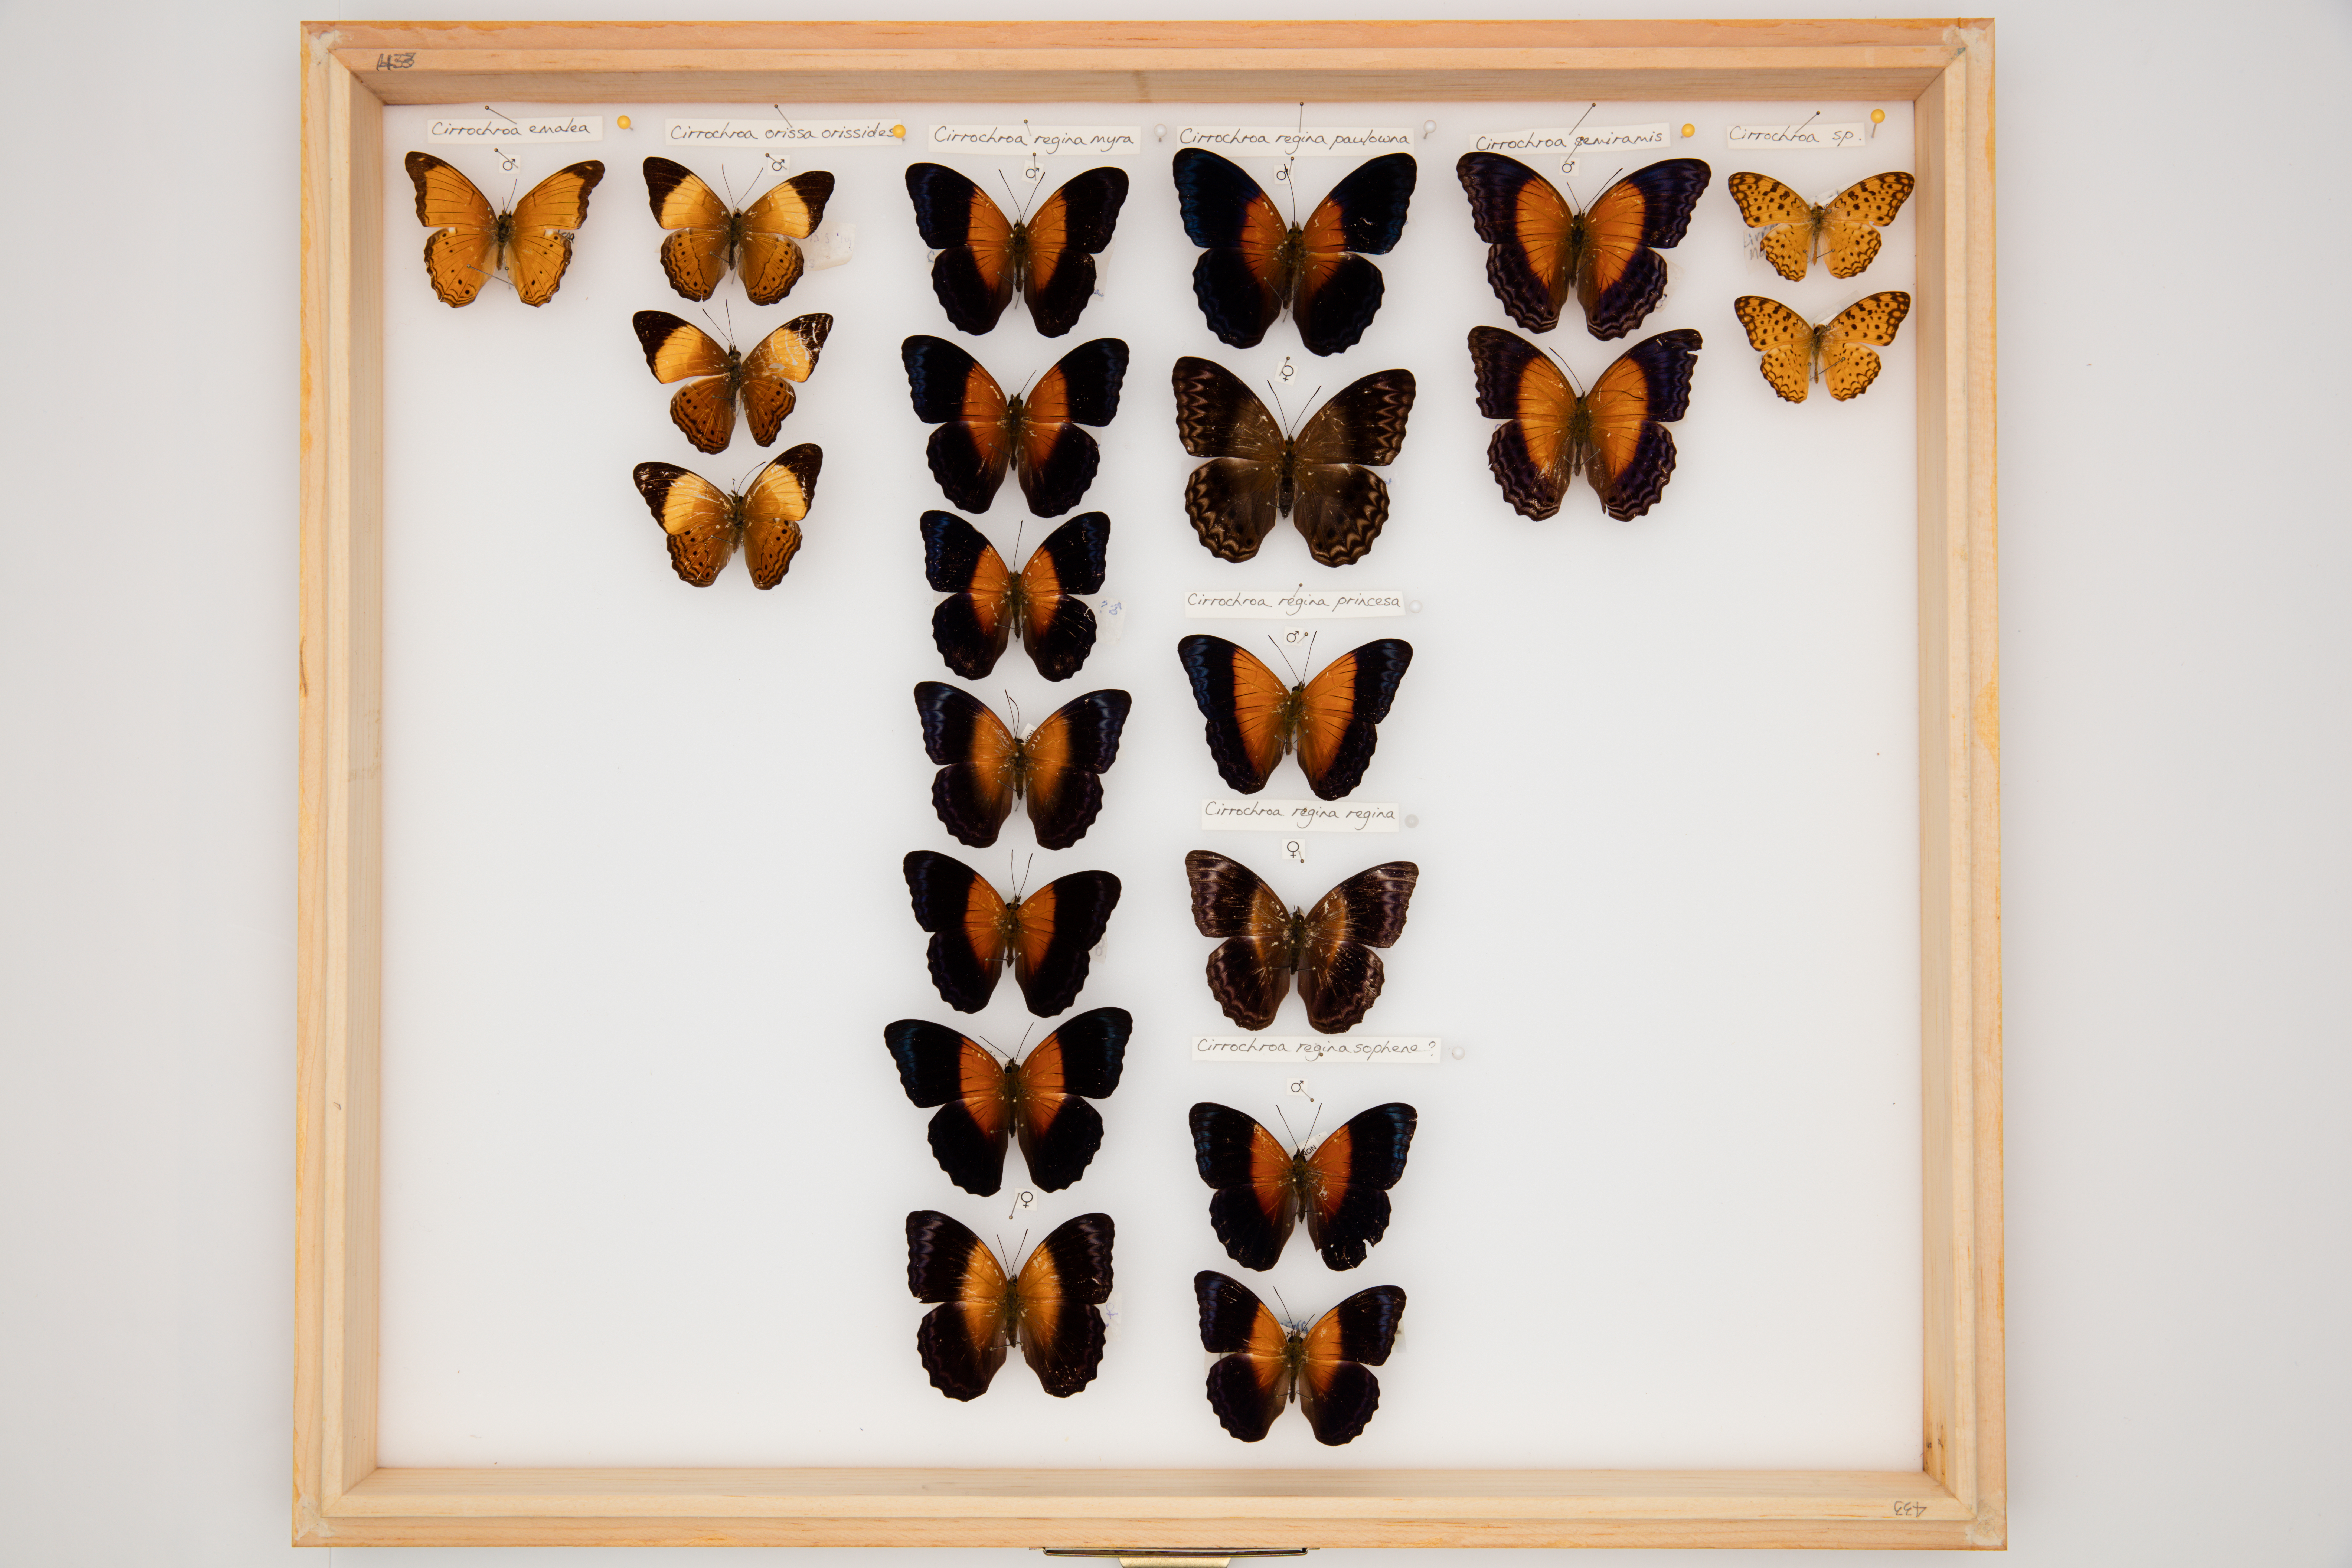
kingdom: Animalia
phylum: Arthropoda
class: Insecta
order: Lepidoptera
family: Nymphalidae
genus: Cirrochroa
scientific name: Cirrochroa regina
